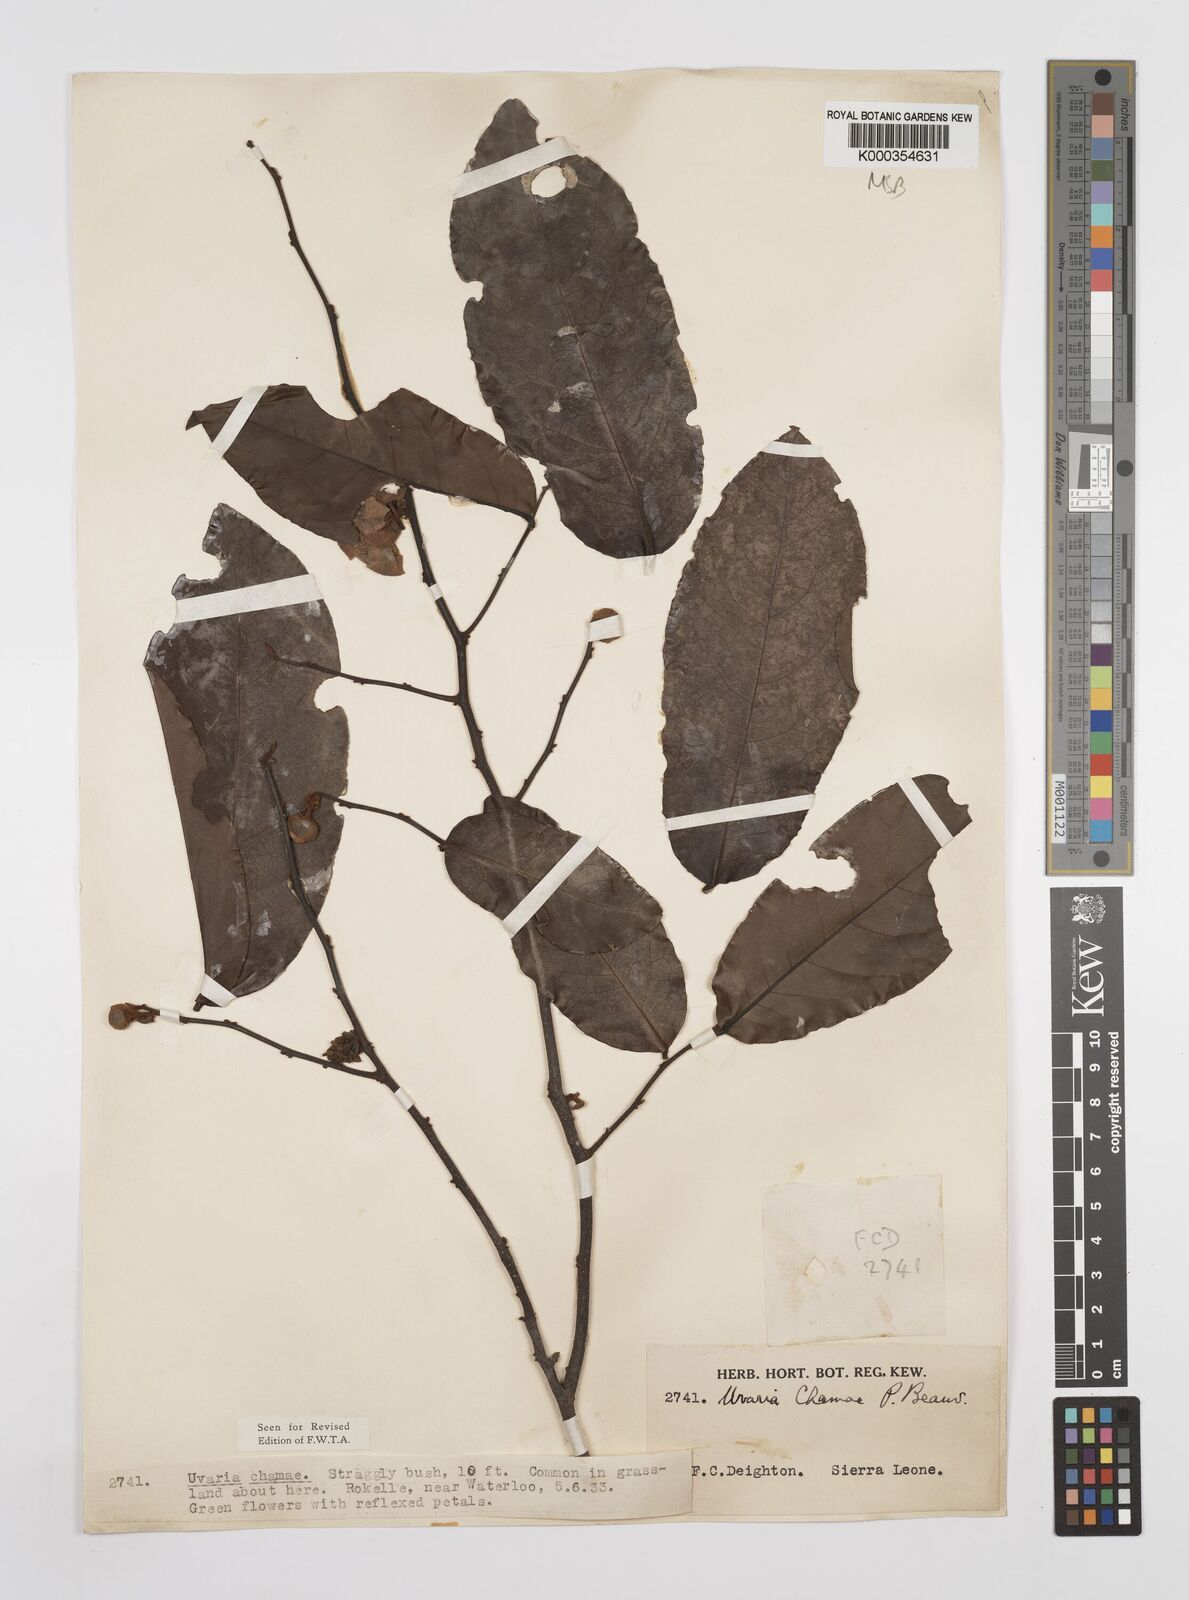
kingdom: Plantae
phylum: Tracheophyta
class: Magnoliopsida
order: Magnoliales
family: Annonaceae
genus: Uvaria
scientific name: Uvaria chamae
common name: Finger-root
